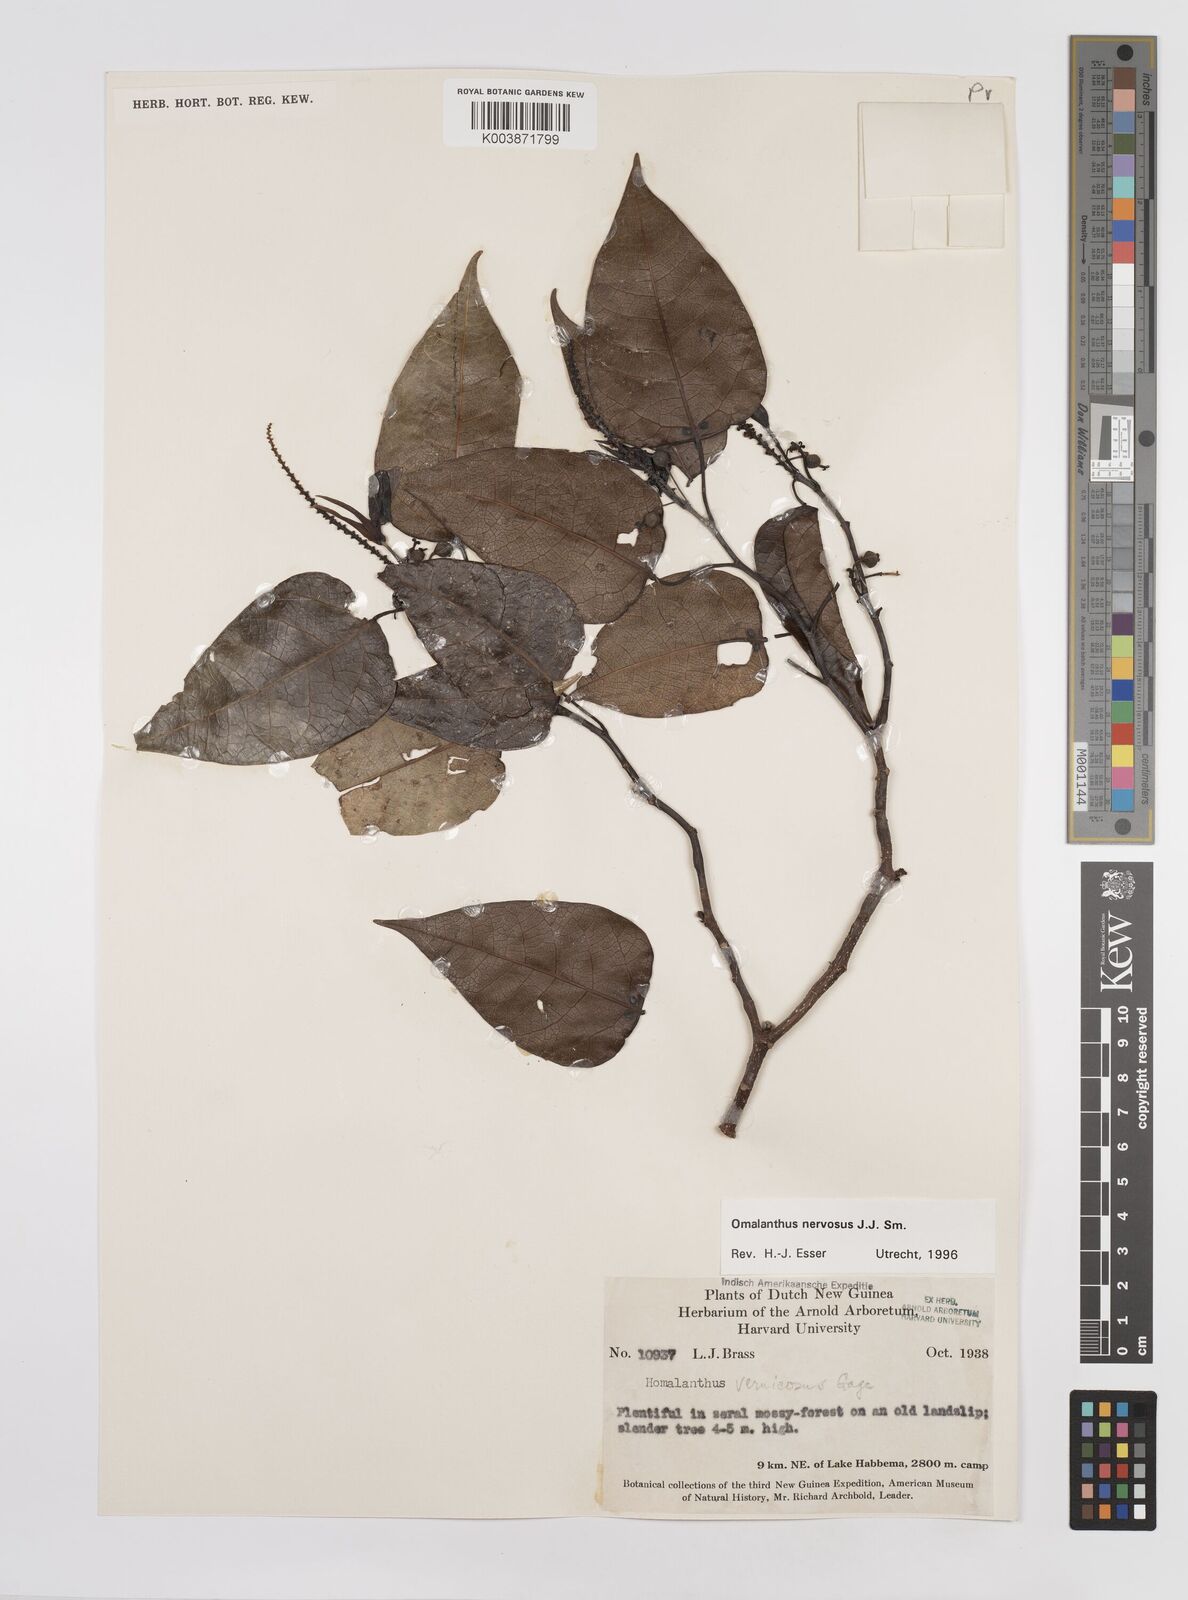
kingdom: Plantae
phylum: Tracheophyta
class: Magnoliopsida
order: Malpighiales
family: Euphorbiaceae
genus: Homalanthus
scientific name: Homalanthus nervosus
